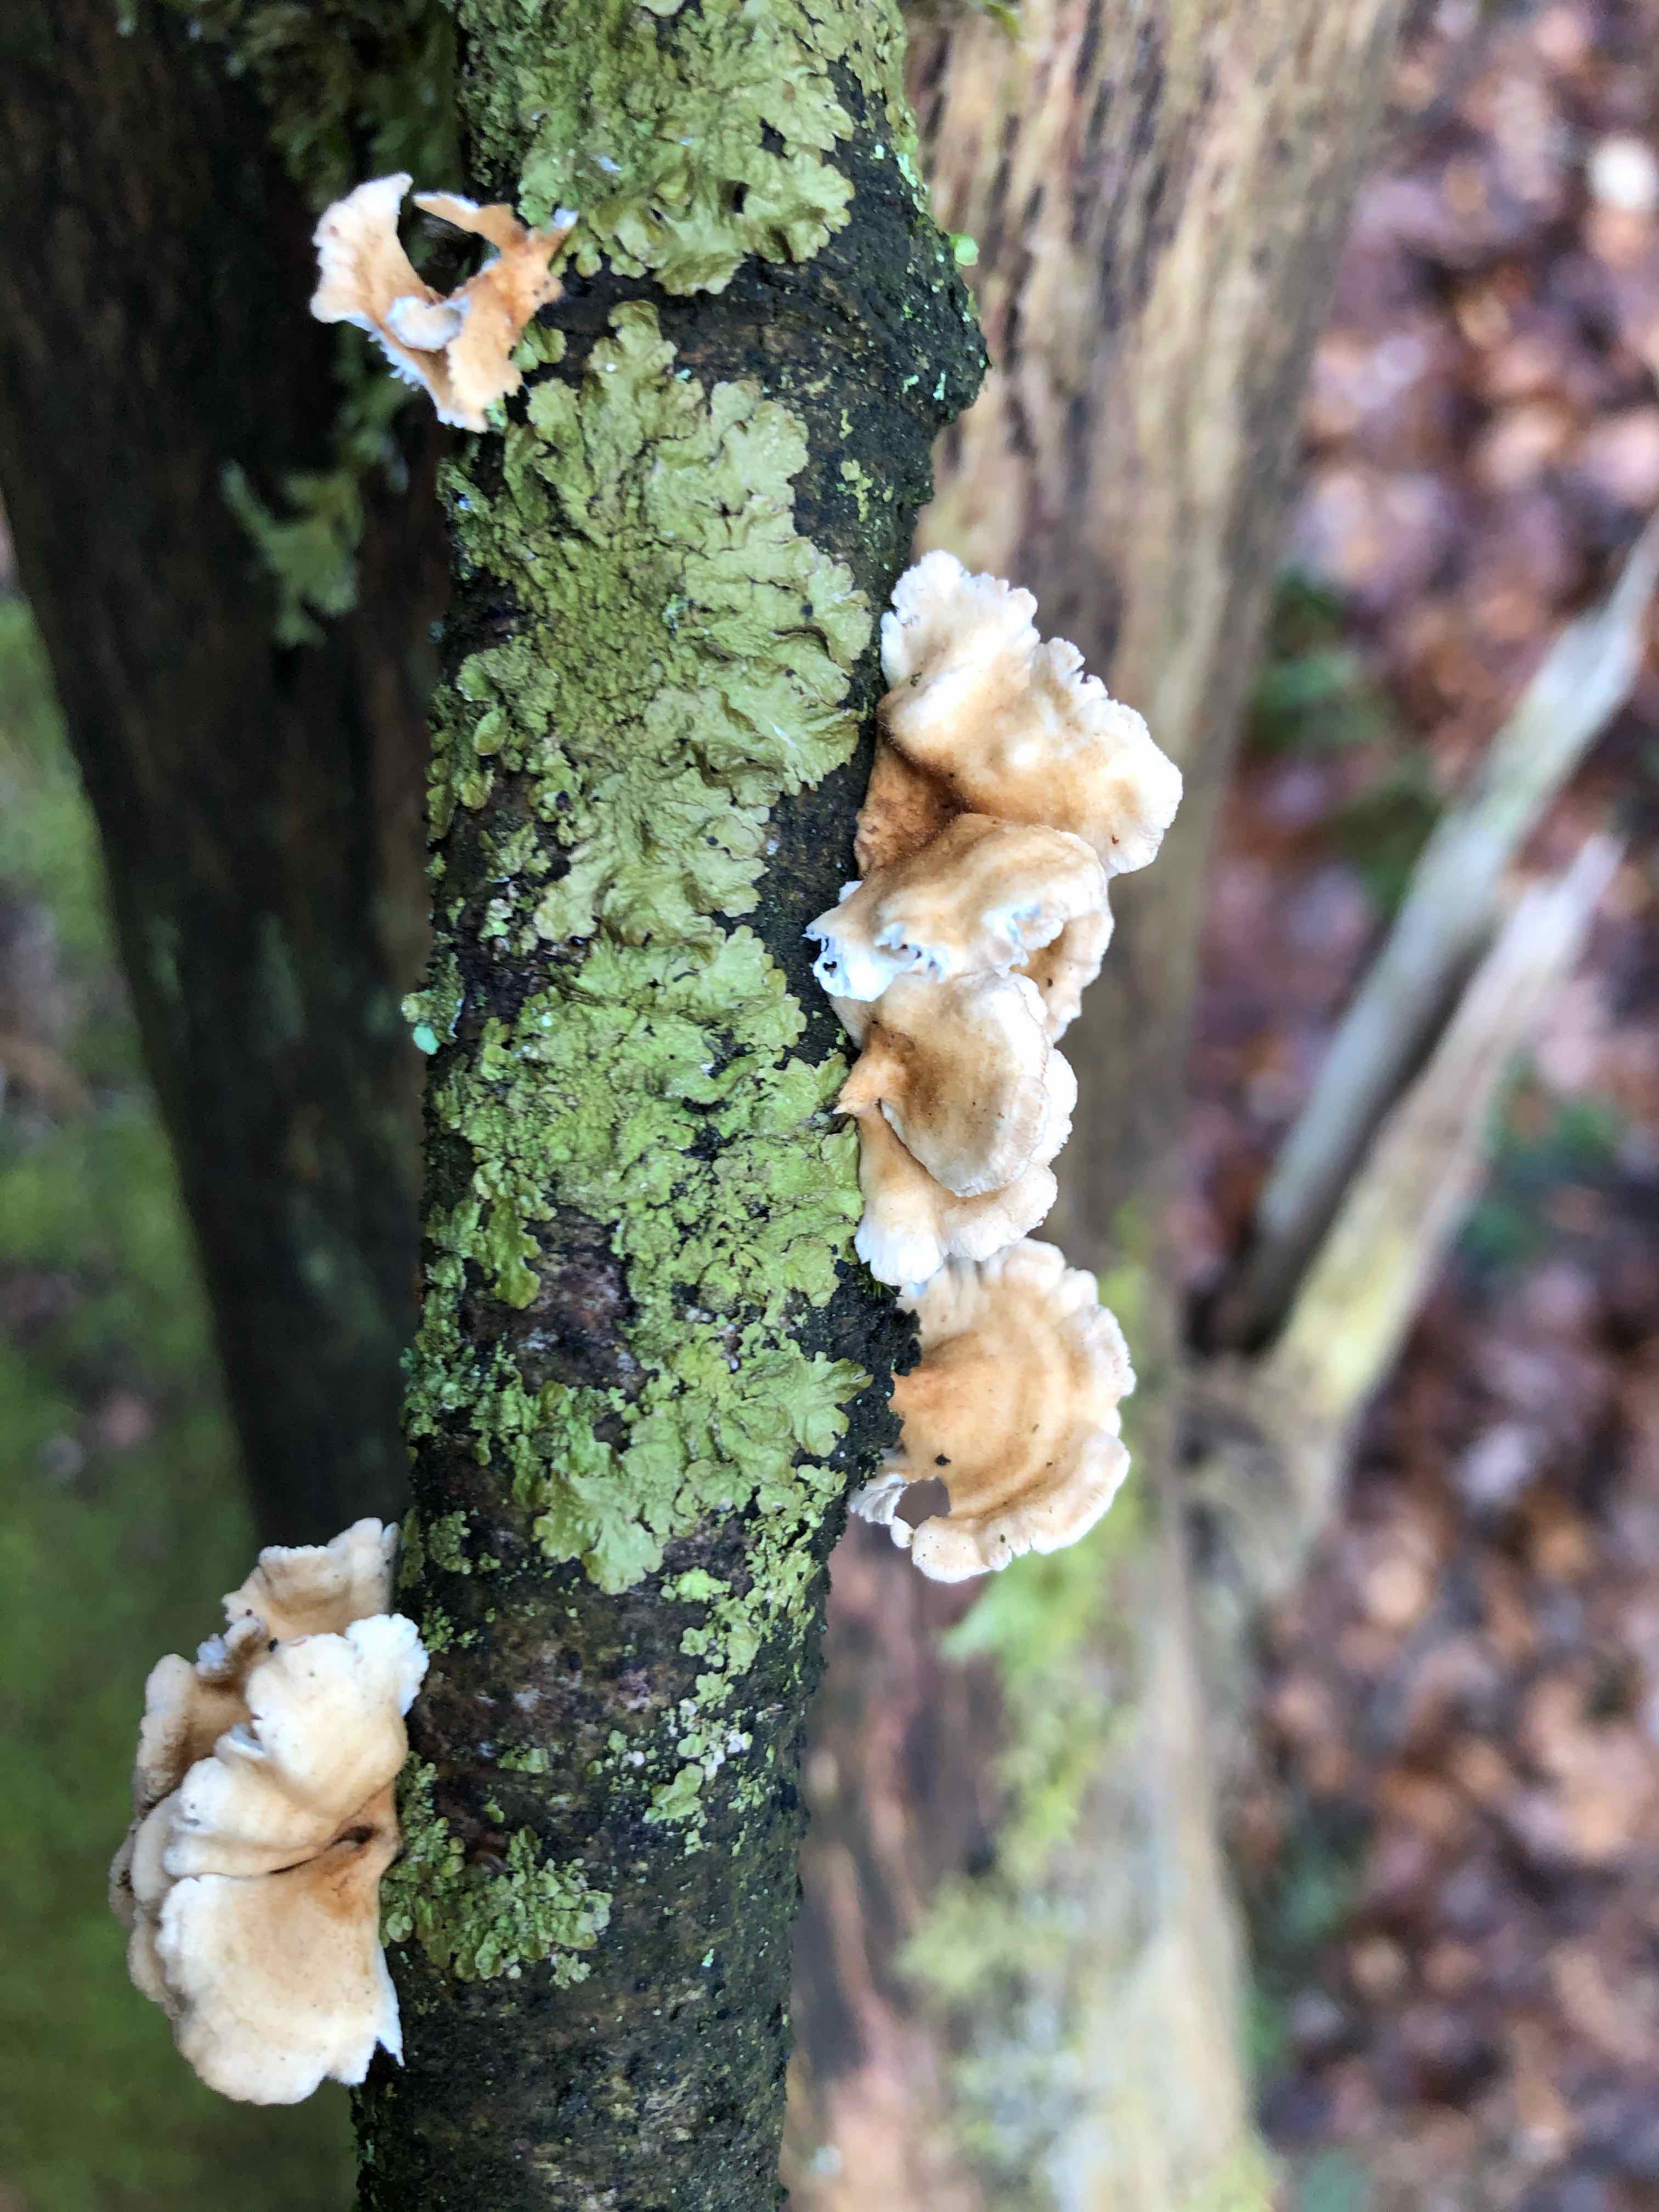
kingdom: Fungi
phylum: Basidiomycota
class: Agaricomycetes
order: Amylocorticiales
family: Amylocorticiaceae
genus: Plicaturopsis
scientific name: Plicaturopsis crispa
